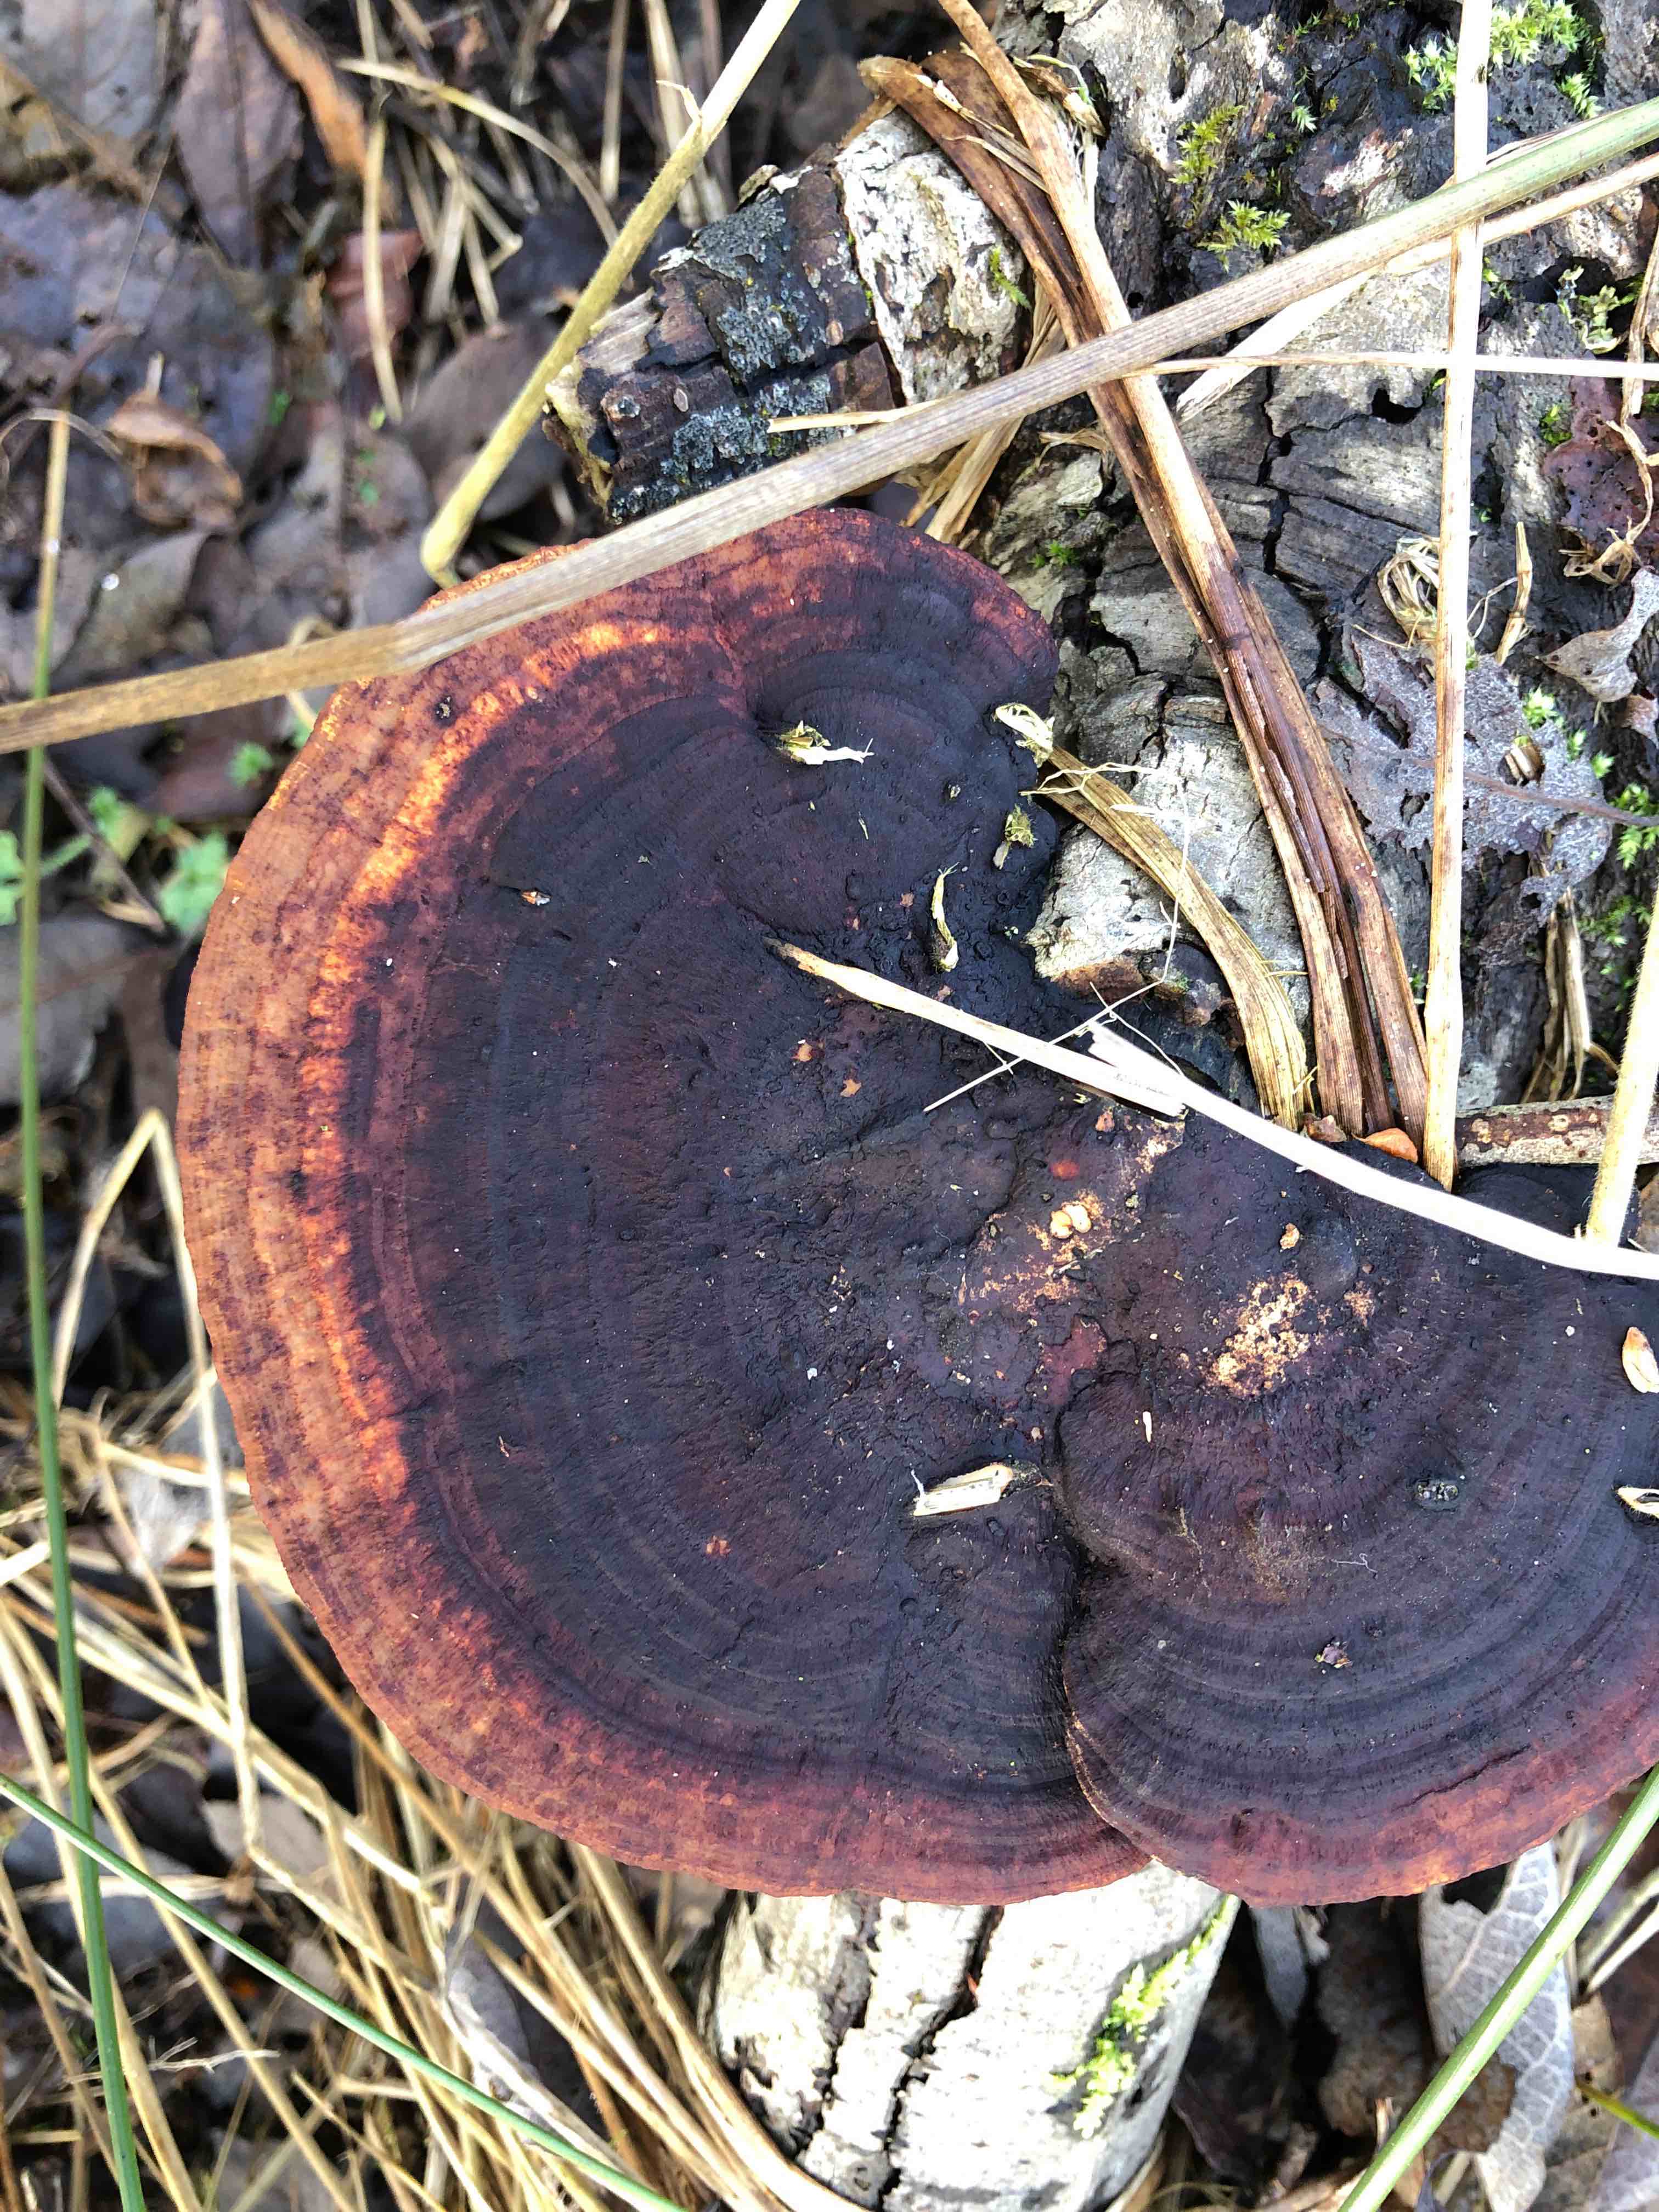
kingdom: Fungi
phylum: Basidiomycota
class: Agaricomycetes
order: Polyporales
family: Polyporaceae
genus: Daedaleopsis
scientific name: Daedaleopsis confragosa
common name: rødmende læderporesvamp
